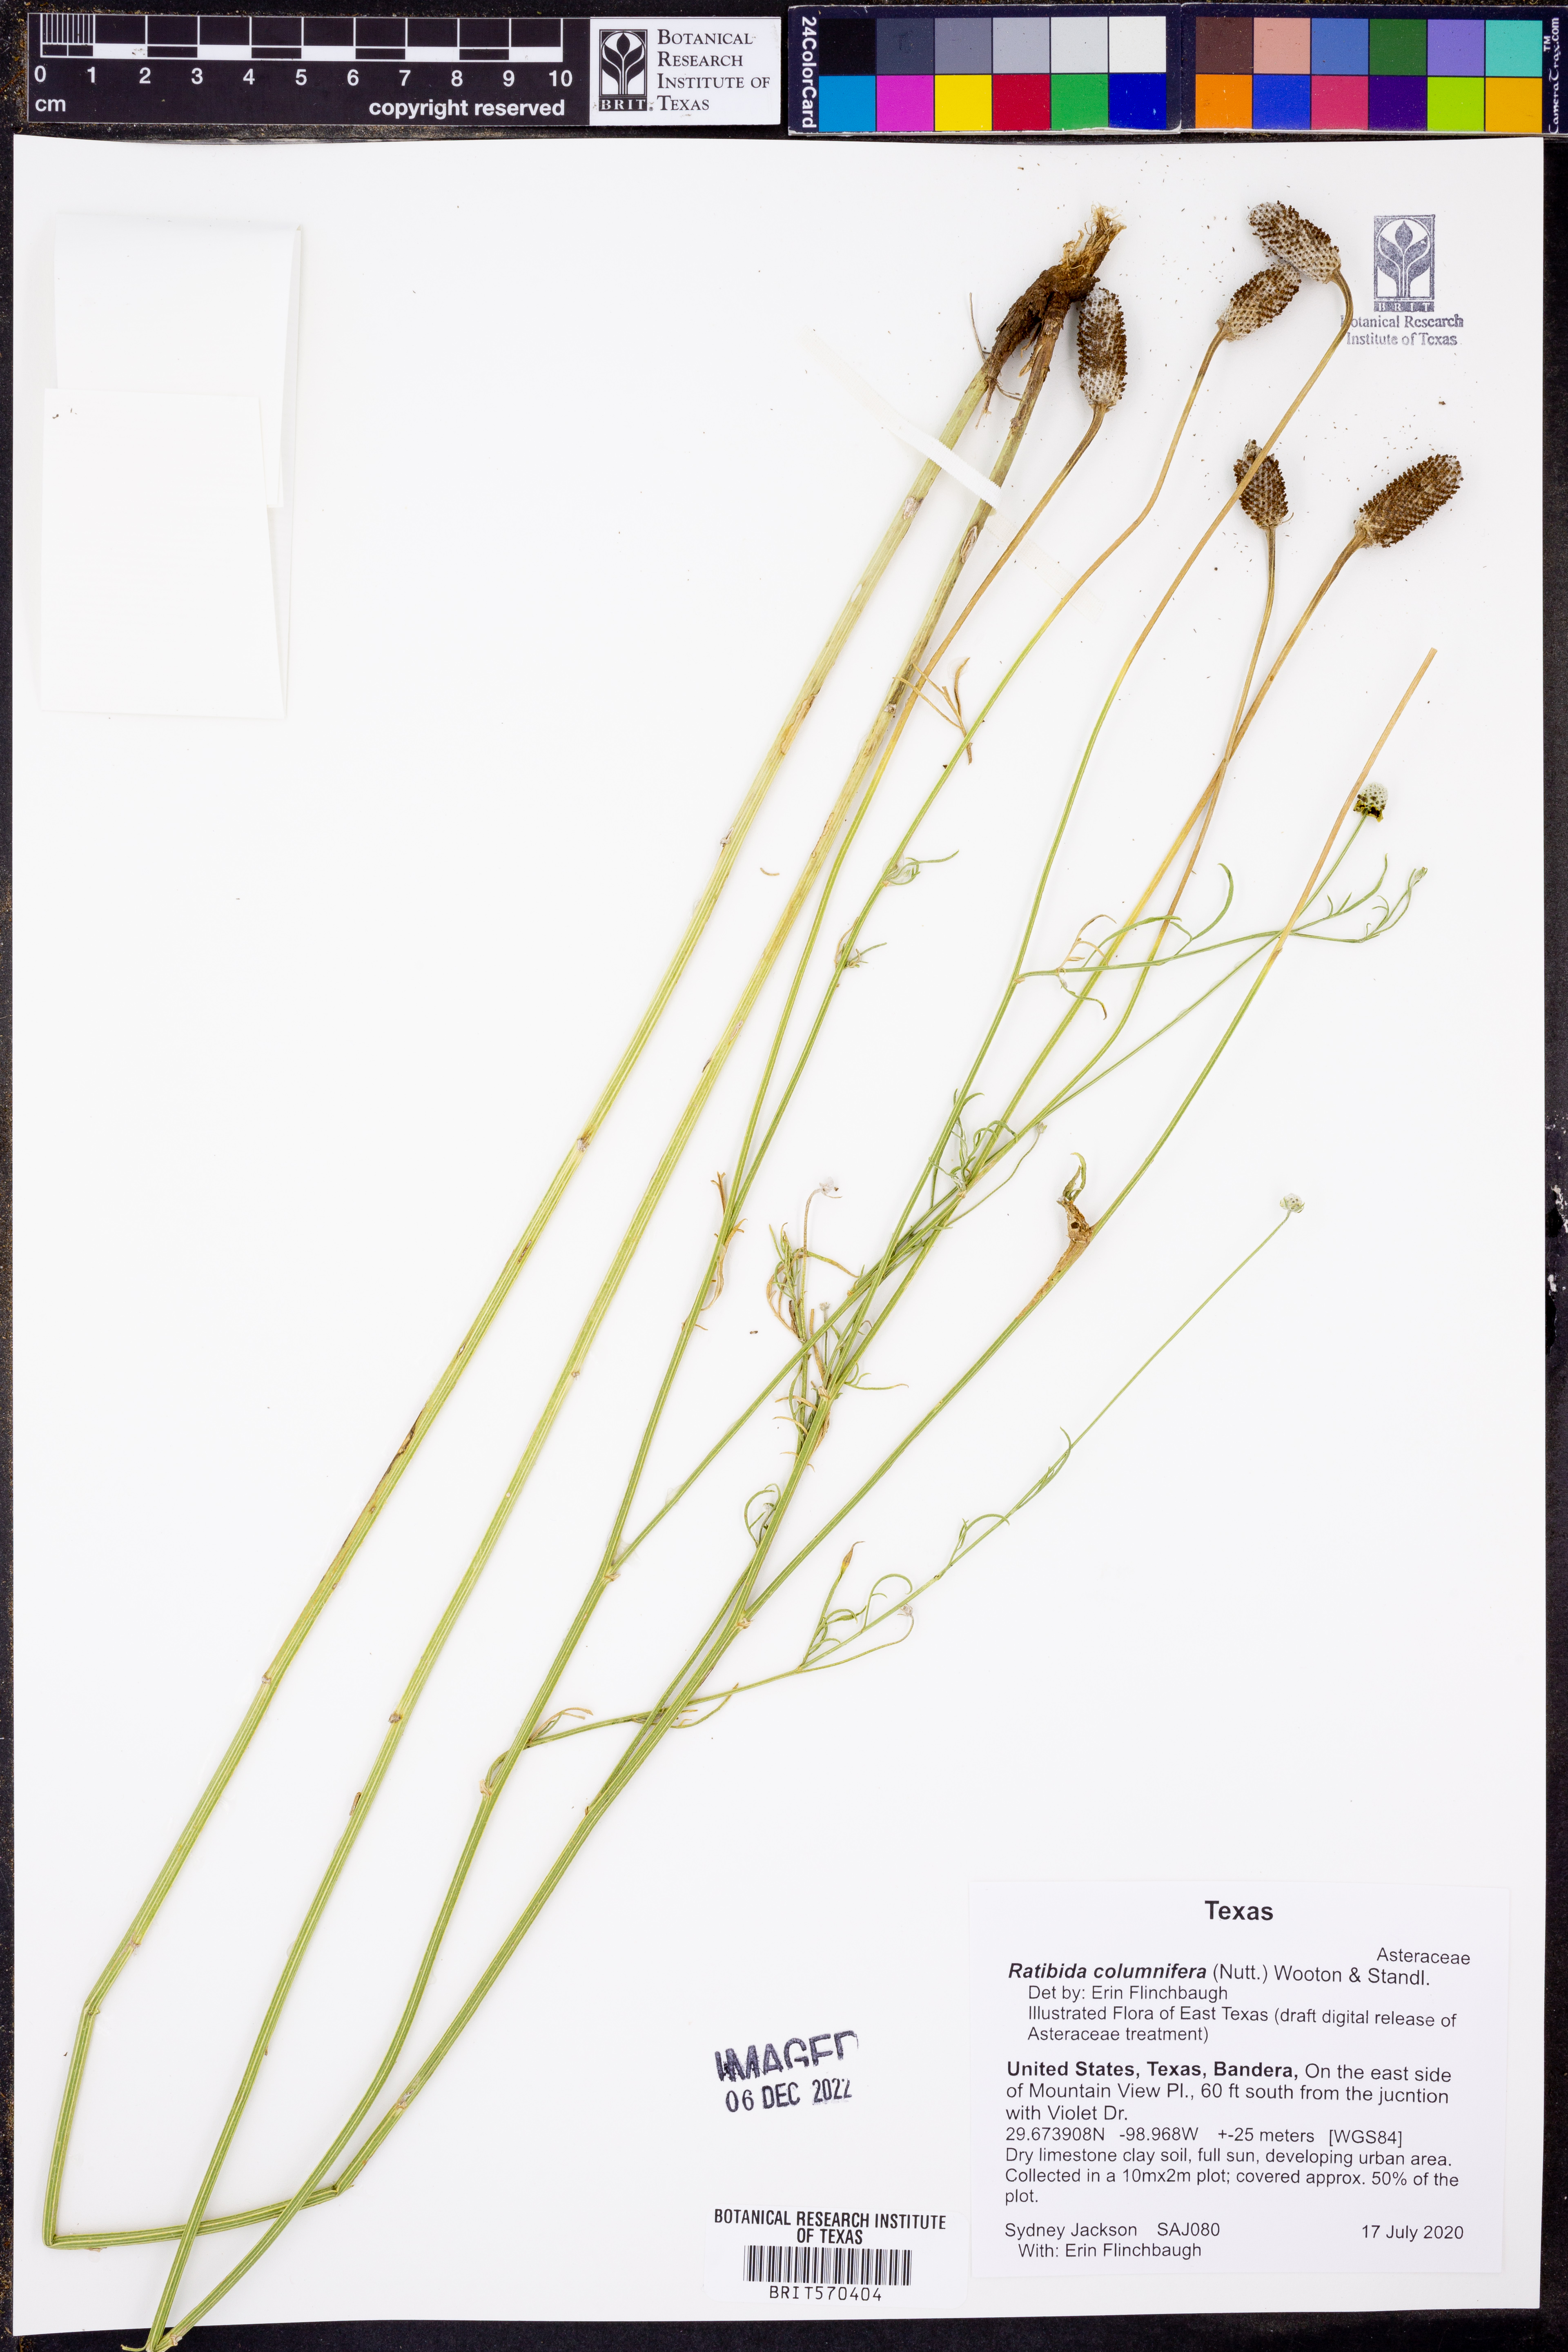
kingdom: Plantae
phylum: Tracheophyta
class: Magnoliopsida
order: Asterales
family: Asteraceae
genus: Ratibida
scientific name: Ratibida columnifera
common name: Prairie coneflower
